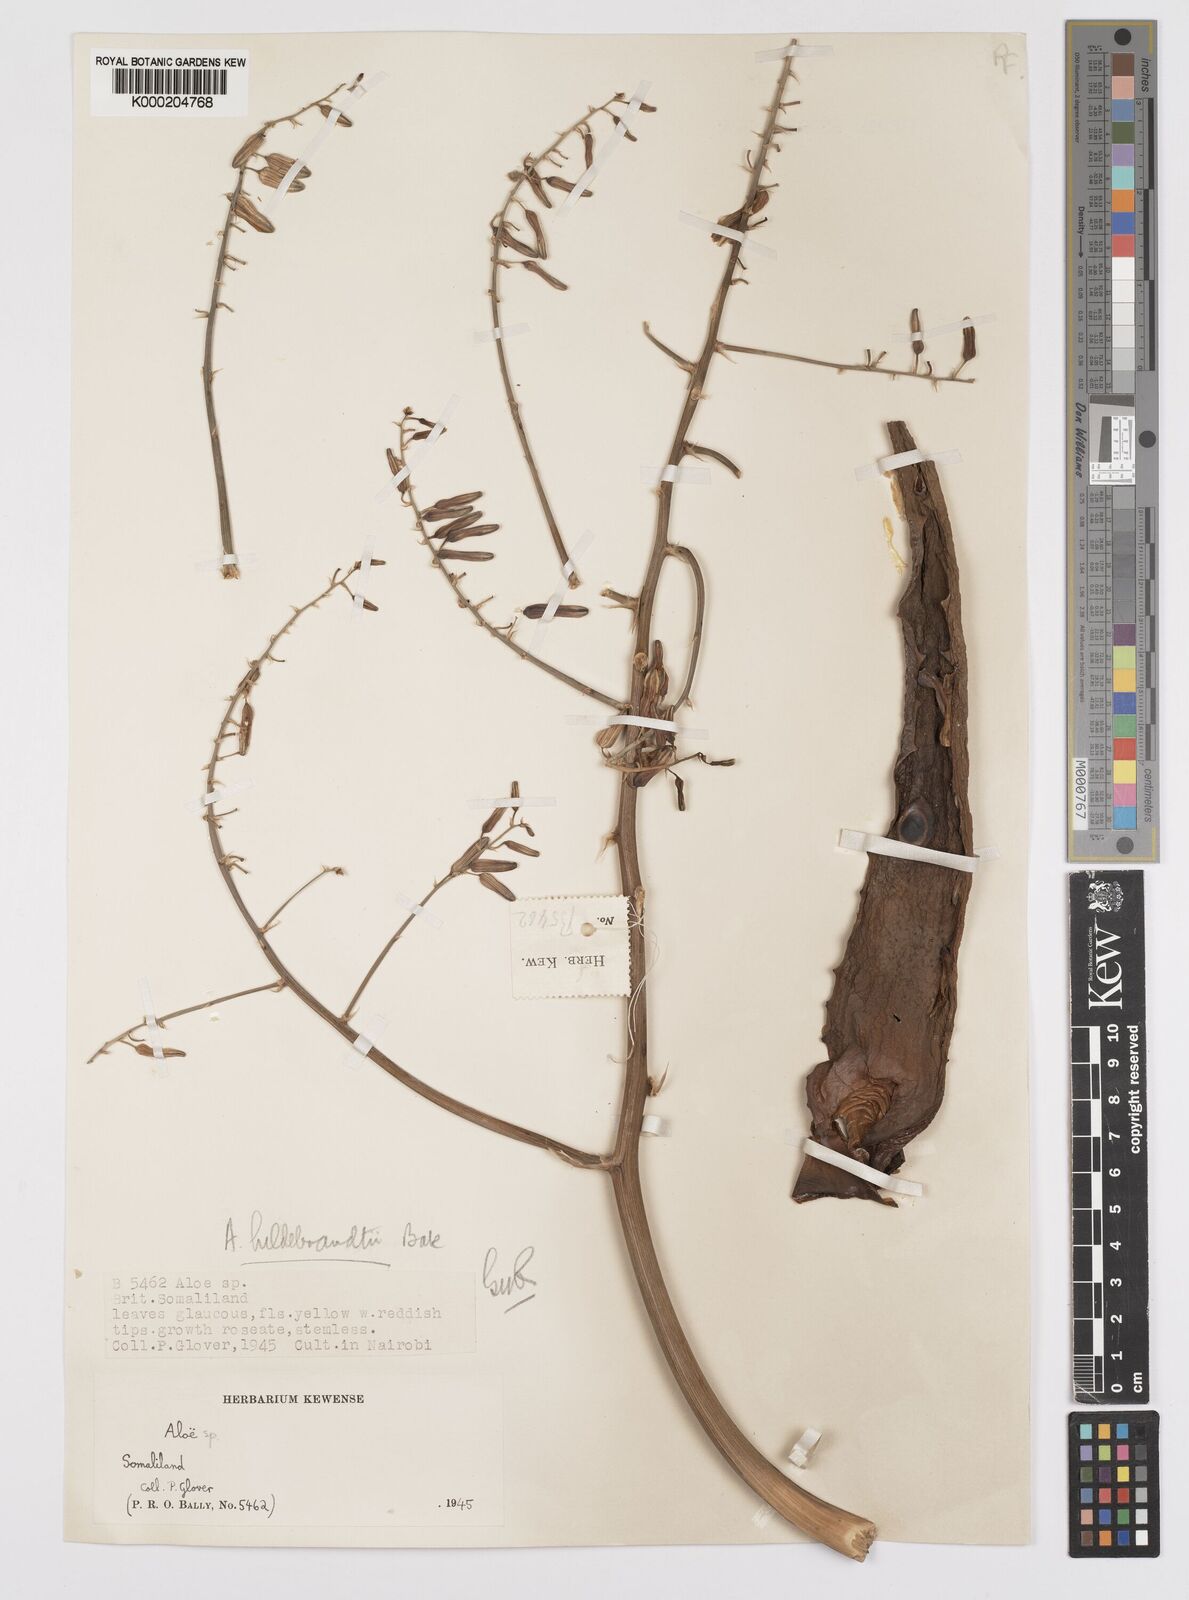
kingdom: Plantae
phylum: Tracheophyta
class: Liliopsida
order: Asparagales
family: Asphodelaceae
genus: Aloe
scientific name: Aloe hildebrandtii
